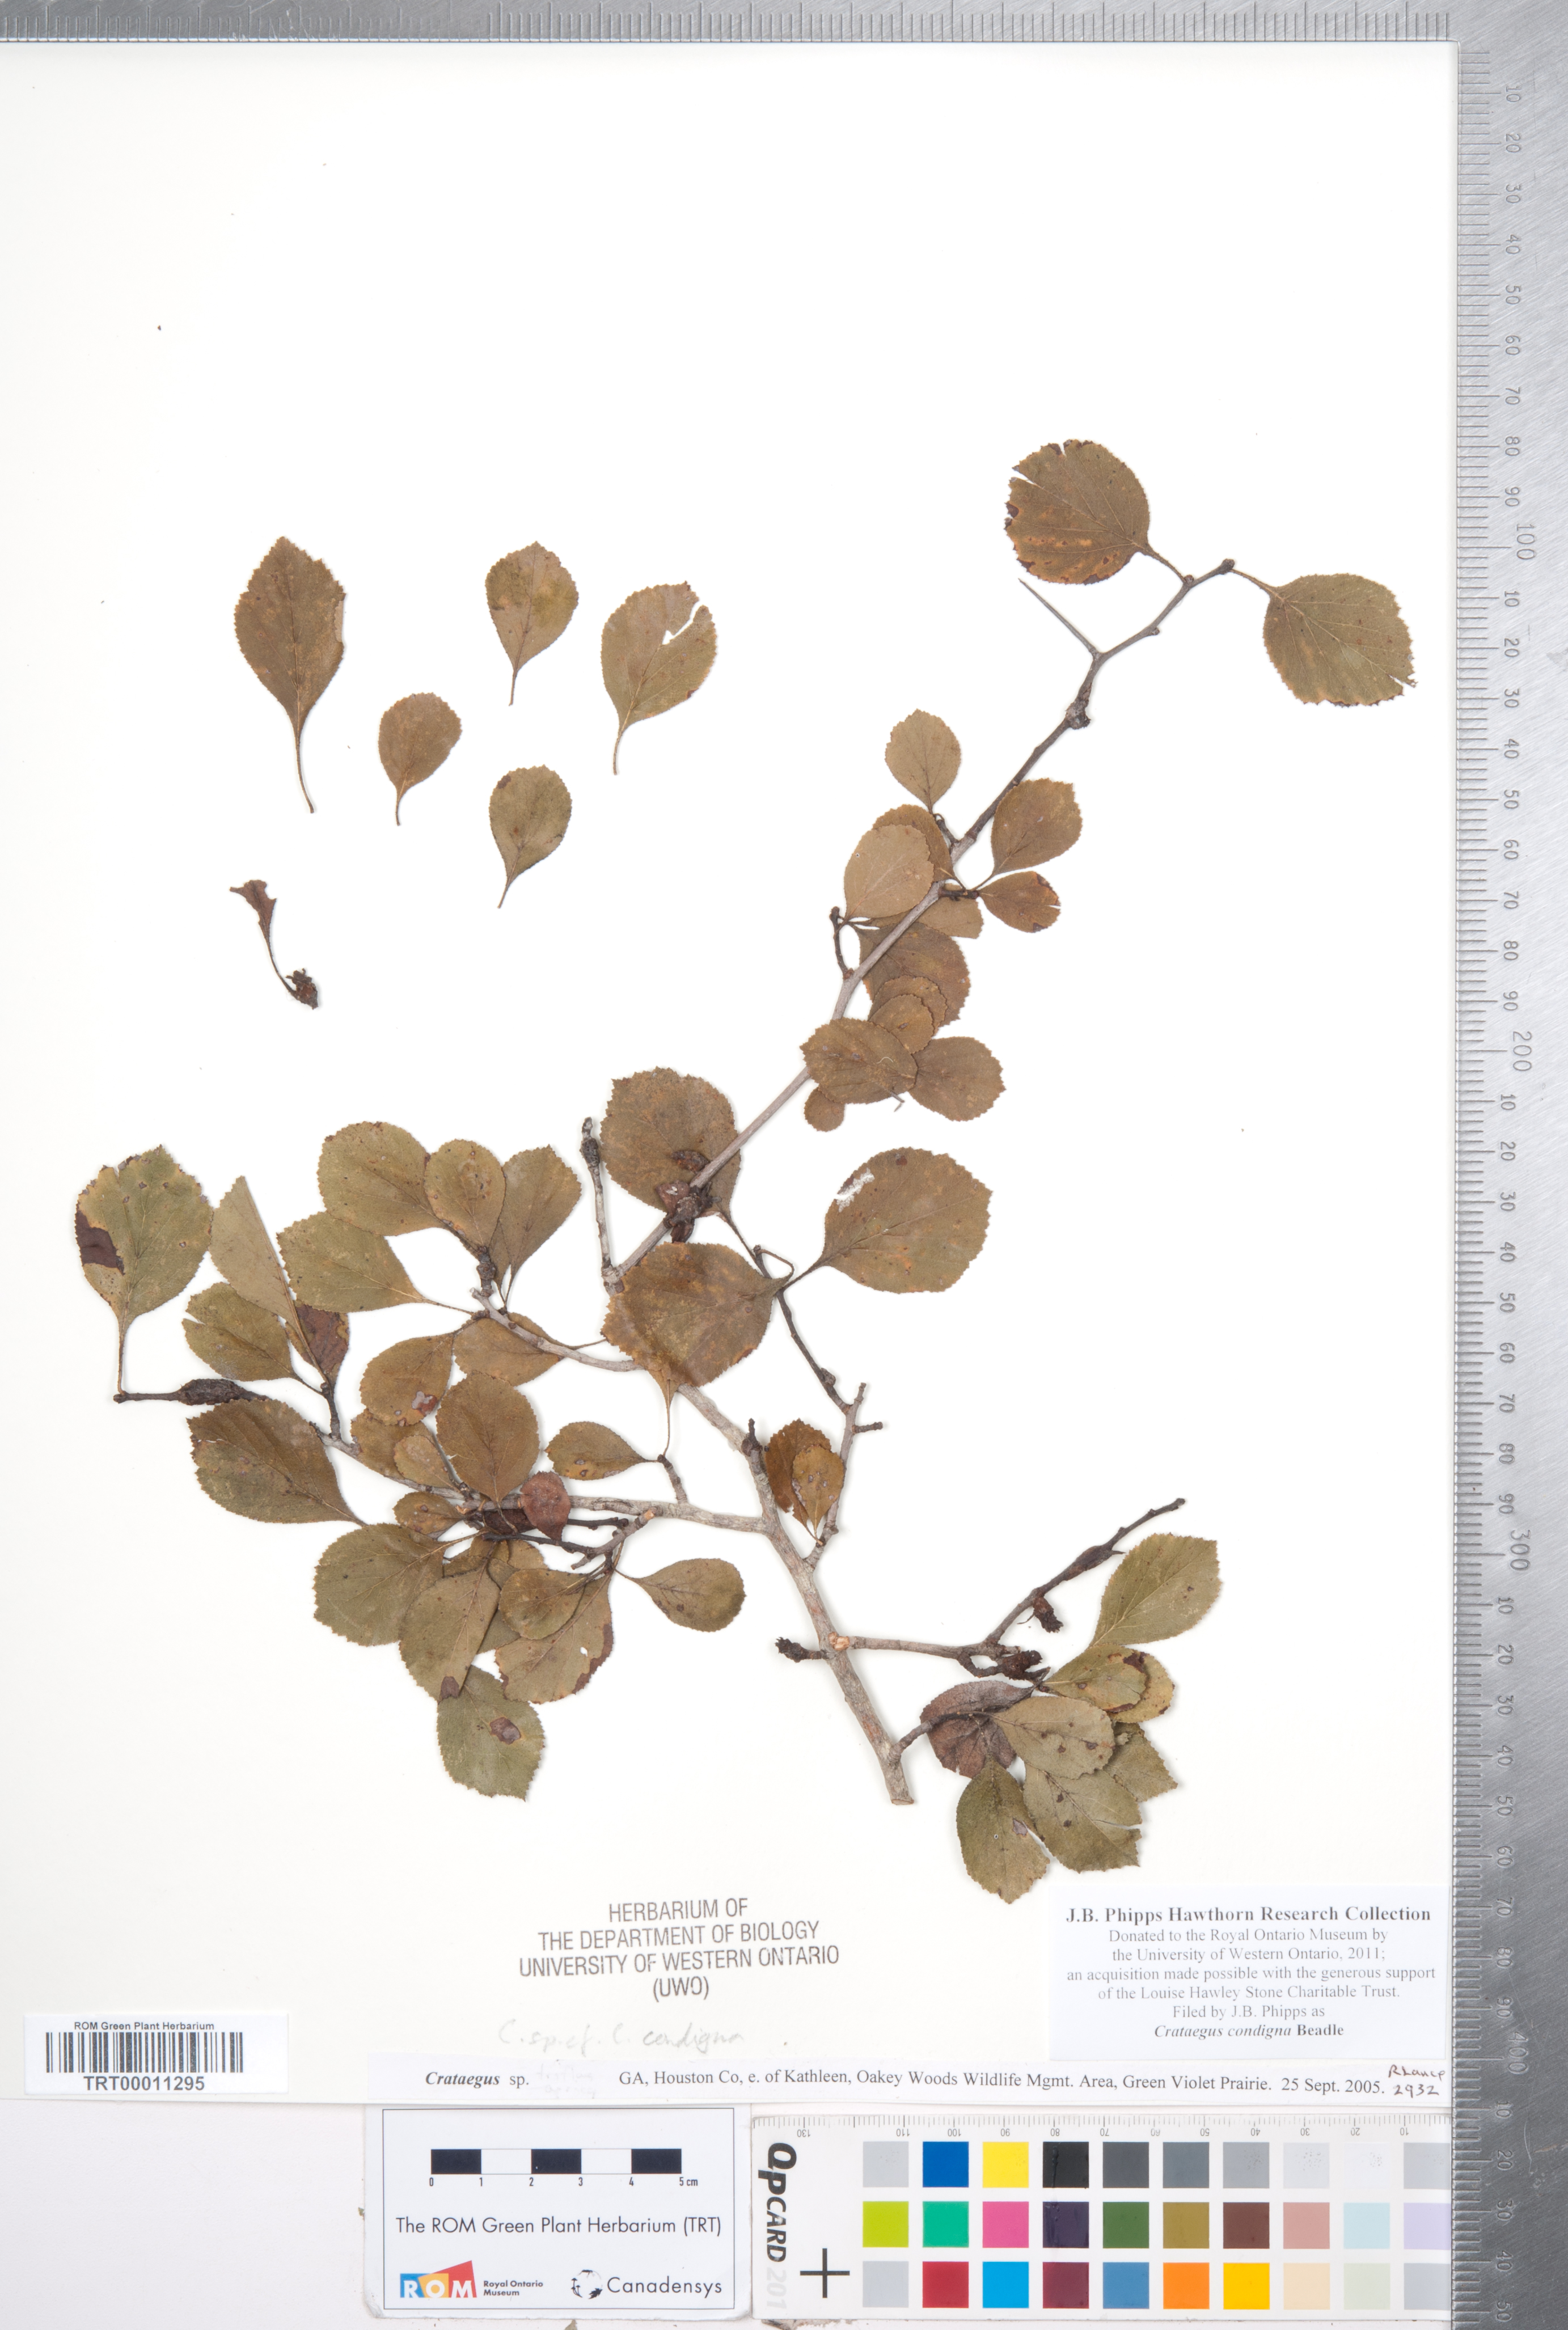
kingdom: Plantae
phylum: Tracheophyta
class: Magnoliopsida
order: Rosales
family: Rosaceae
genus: Crataegus
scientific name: Crataegus condigna
